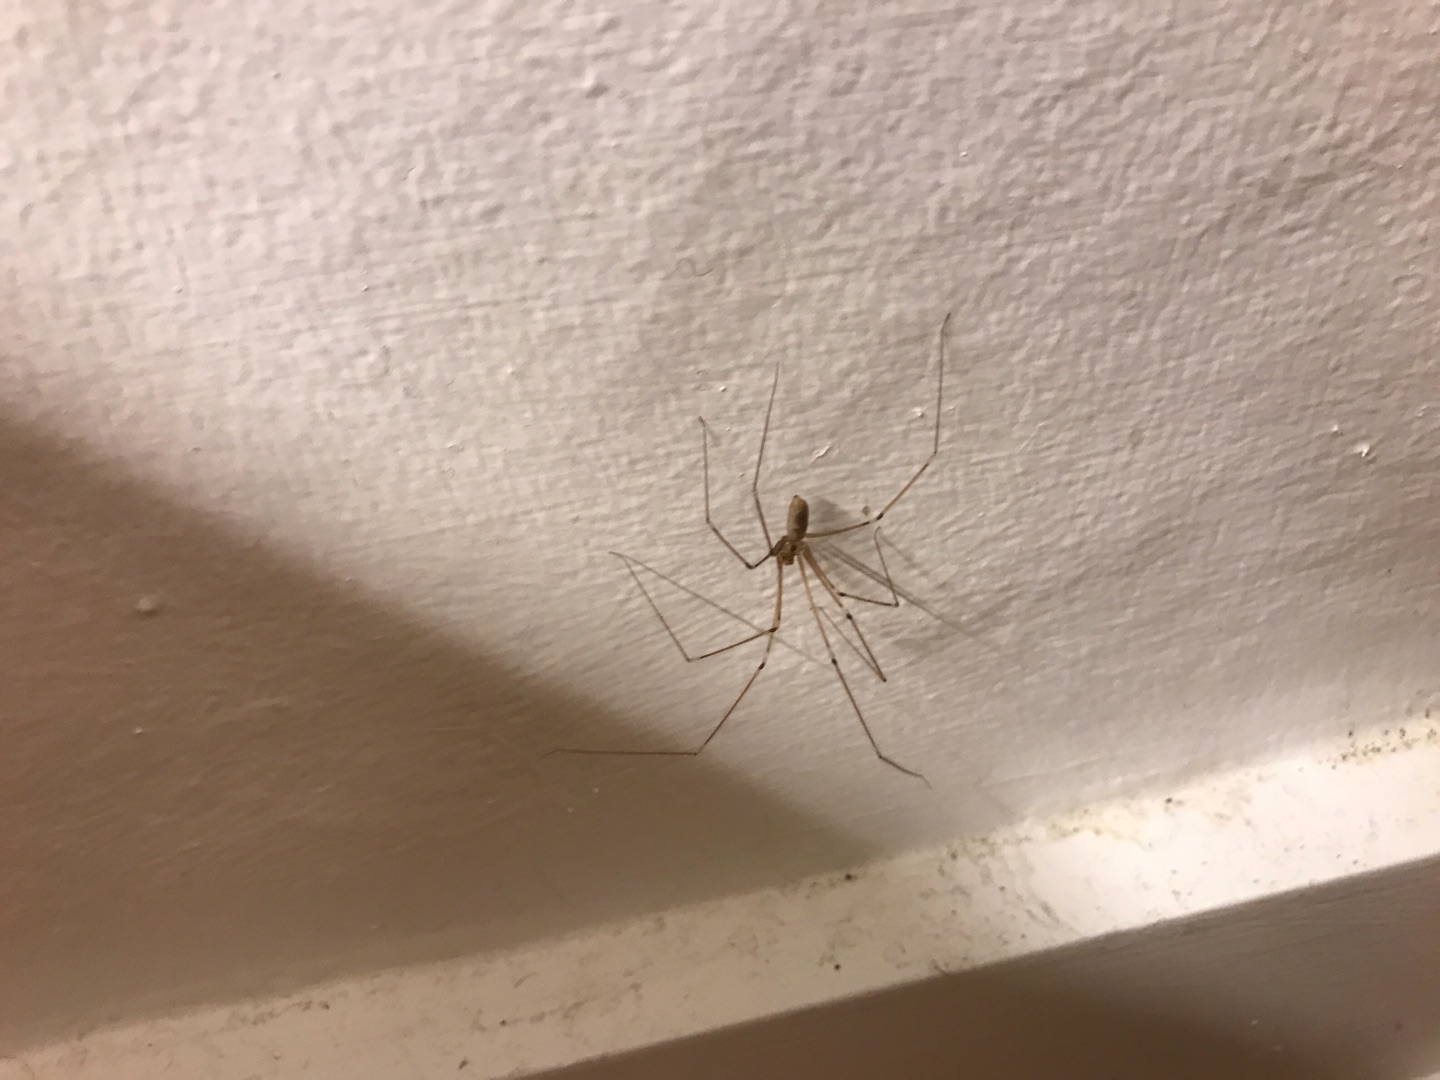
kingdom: Animalia
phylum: Arthropoda
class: Arachnida
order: Araneae
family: Pholcidae
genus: Pholcus
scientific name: Pholcus phalangioides
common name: Mejeredderkop
